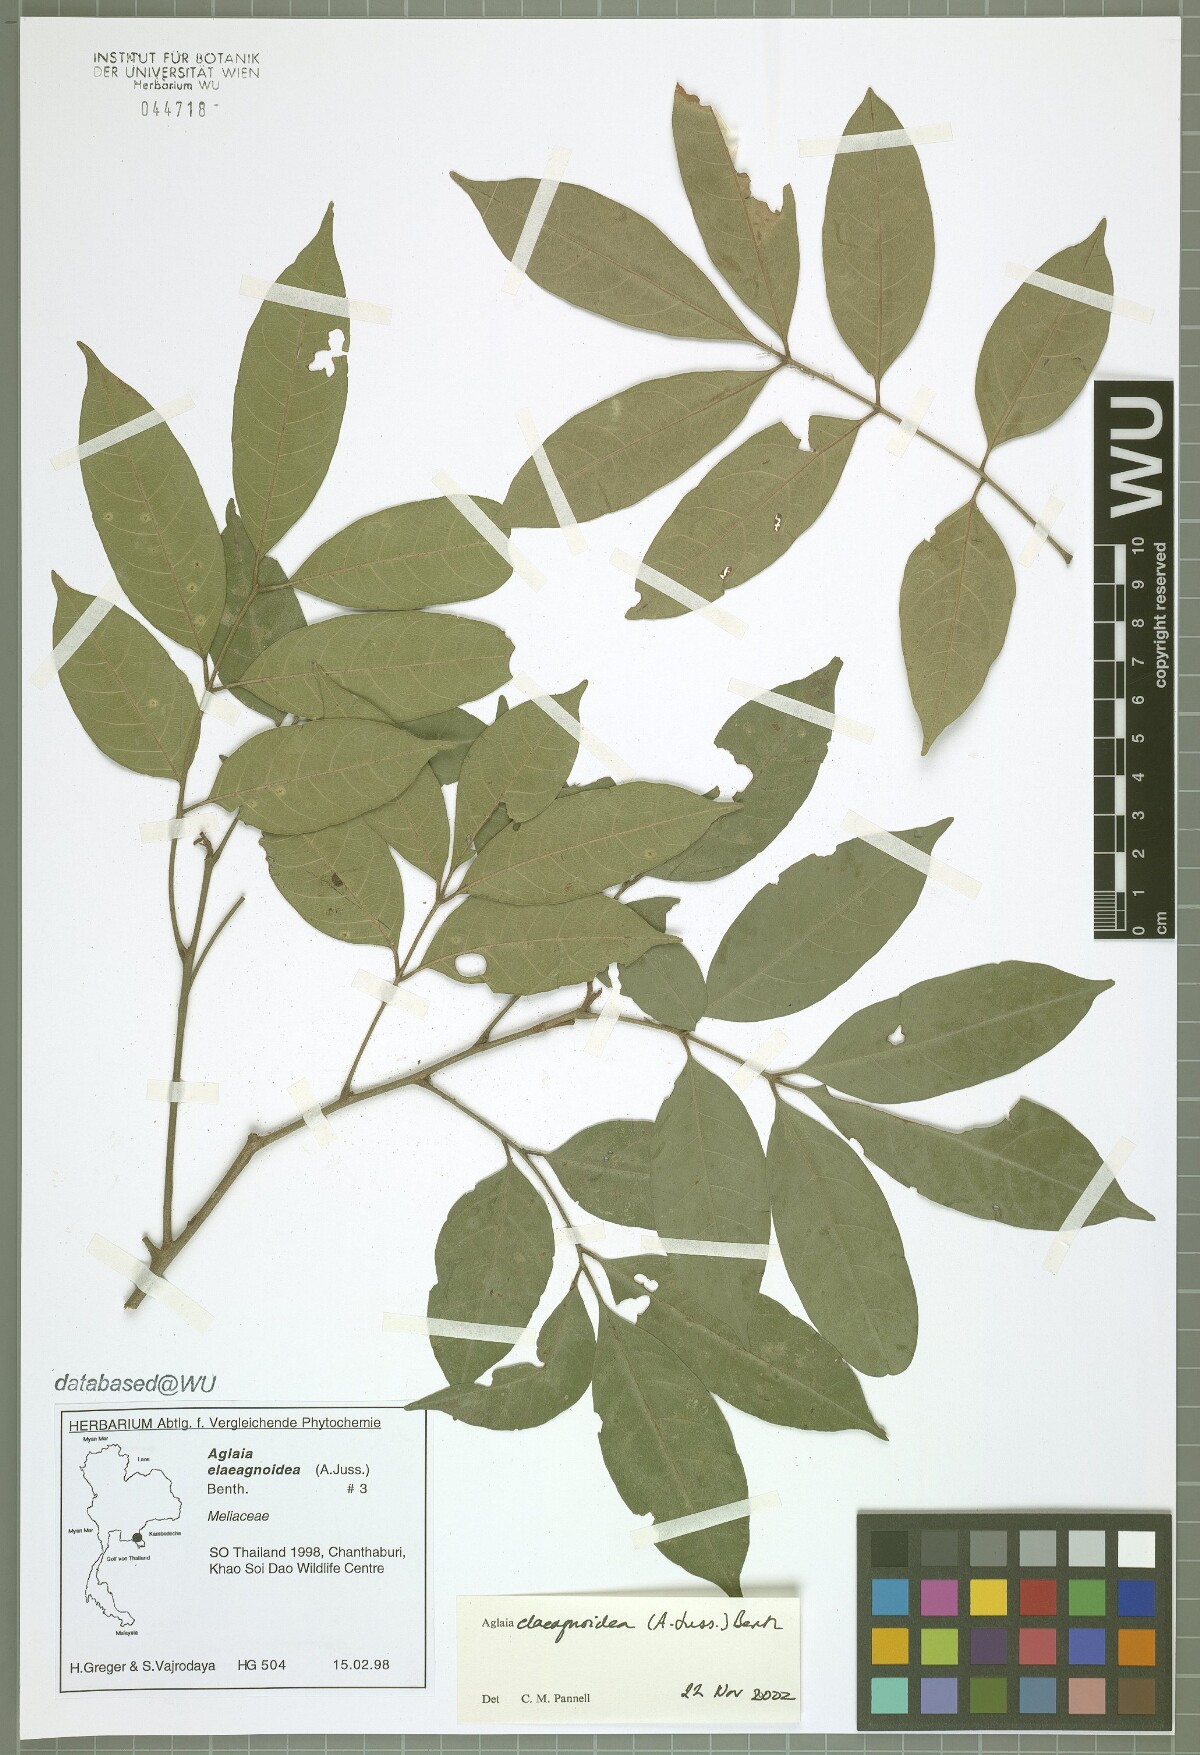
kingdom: Plantae
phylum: Tracheophyta
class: Magnoliopsida
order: Sapindales
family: Meliaceae
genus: Aglaia
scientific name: Aglaia elaeagnoidea
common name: Droopyleaf
